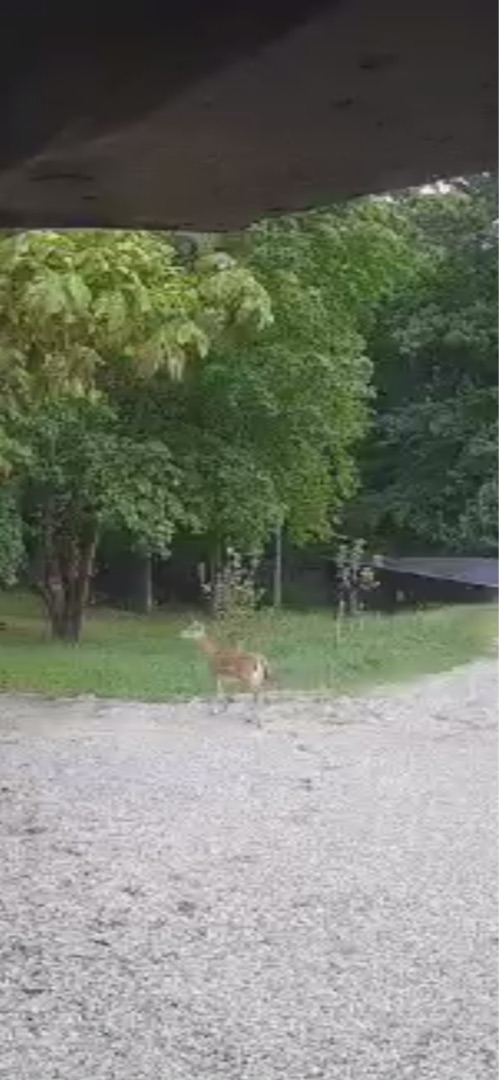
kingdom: Animalia
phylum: Chordata
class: Mammalia
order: Artiodactyla
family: Cervidae
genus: Dama
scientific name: Dama dama
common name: Dådyr
